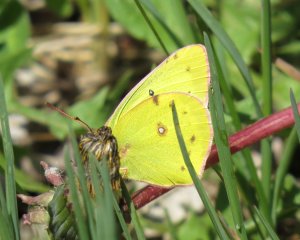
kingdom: Animalia
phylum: Arthropoda
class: Insecta
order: Lepidoptera
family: Pieridae
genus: Colias
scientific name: Colias philodice
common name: Clouded Sulphur
